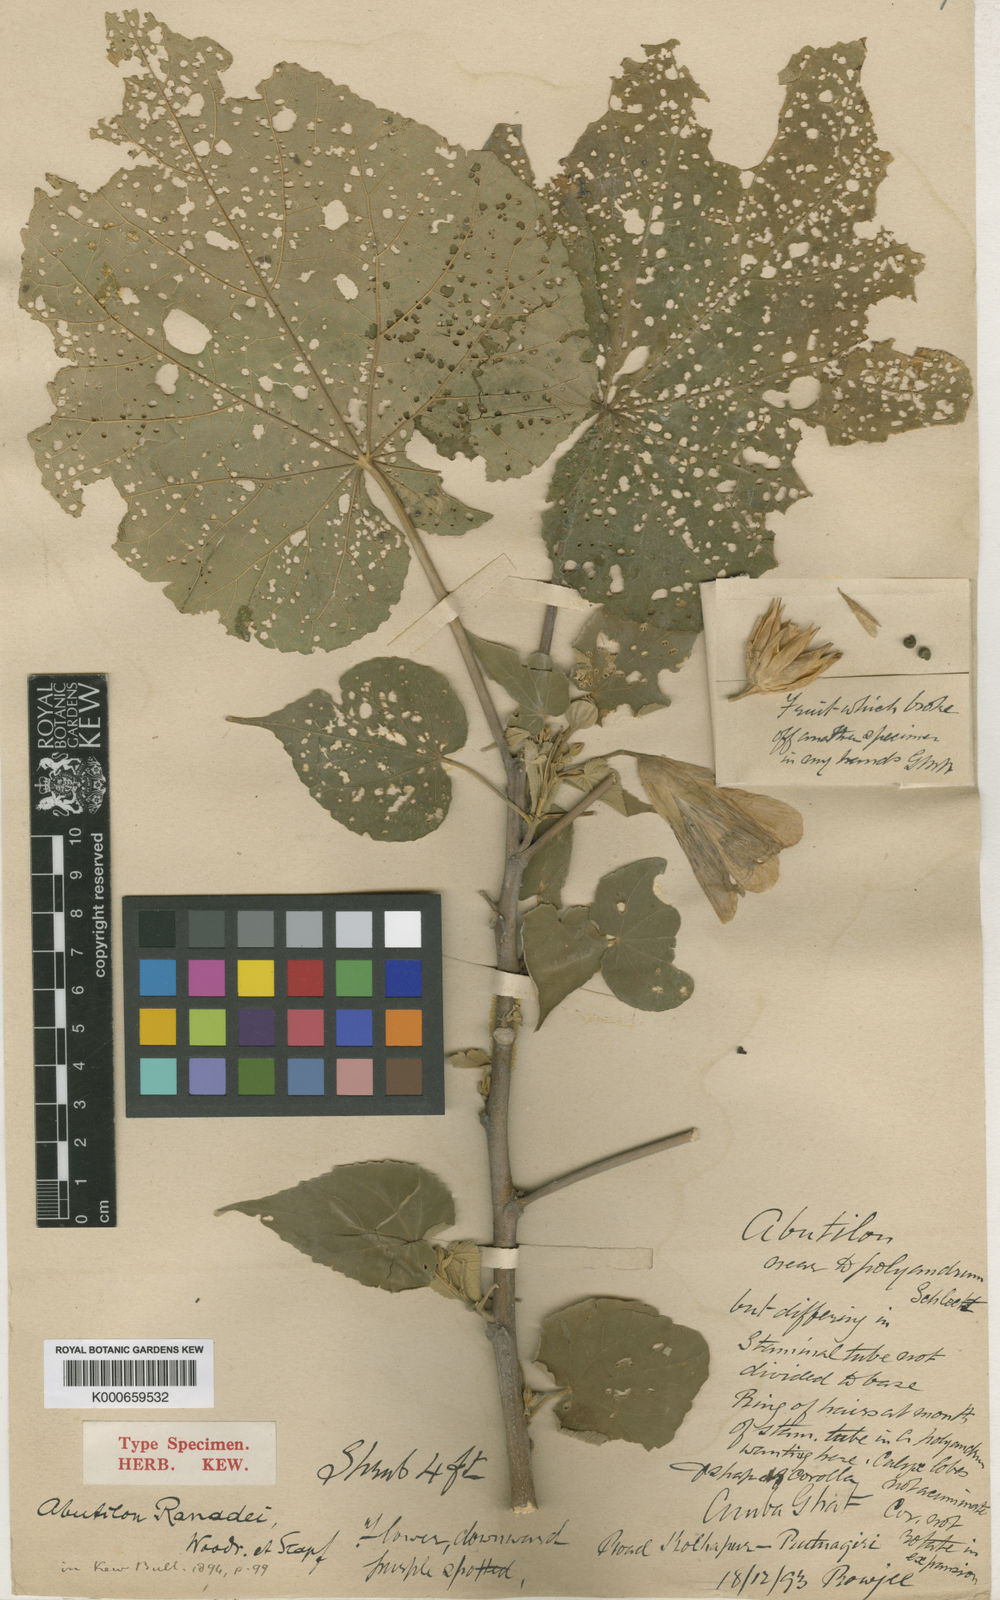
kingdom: Plantae
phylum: Tracheophyta
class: Magnoliopsida
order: Malvales
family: Malvaceae
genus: Abutilon
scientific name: Abutilon ranadei
